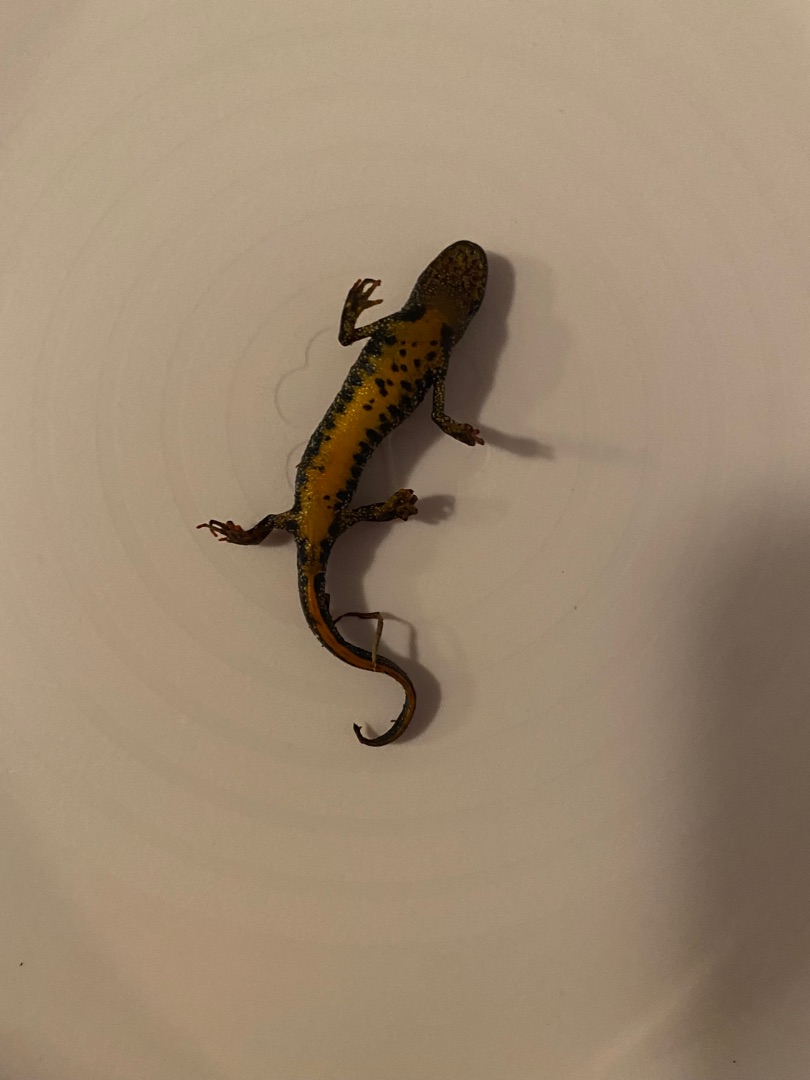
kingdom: Animalia
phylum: Chordata
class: Amphibia
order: Caudata
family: Salamandridae
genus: Triturus
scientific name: Triturus cristatus
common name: Stor vandsalamander
